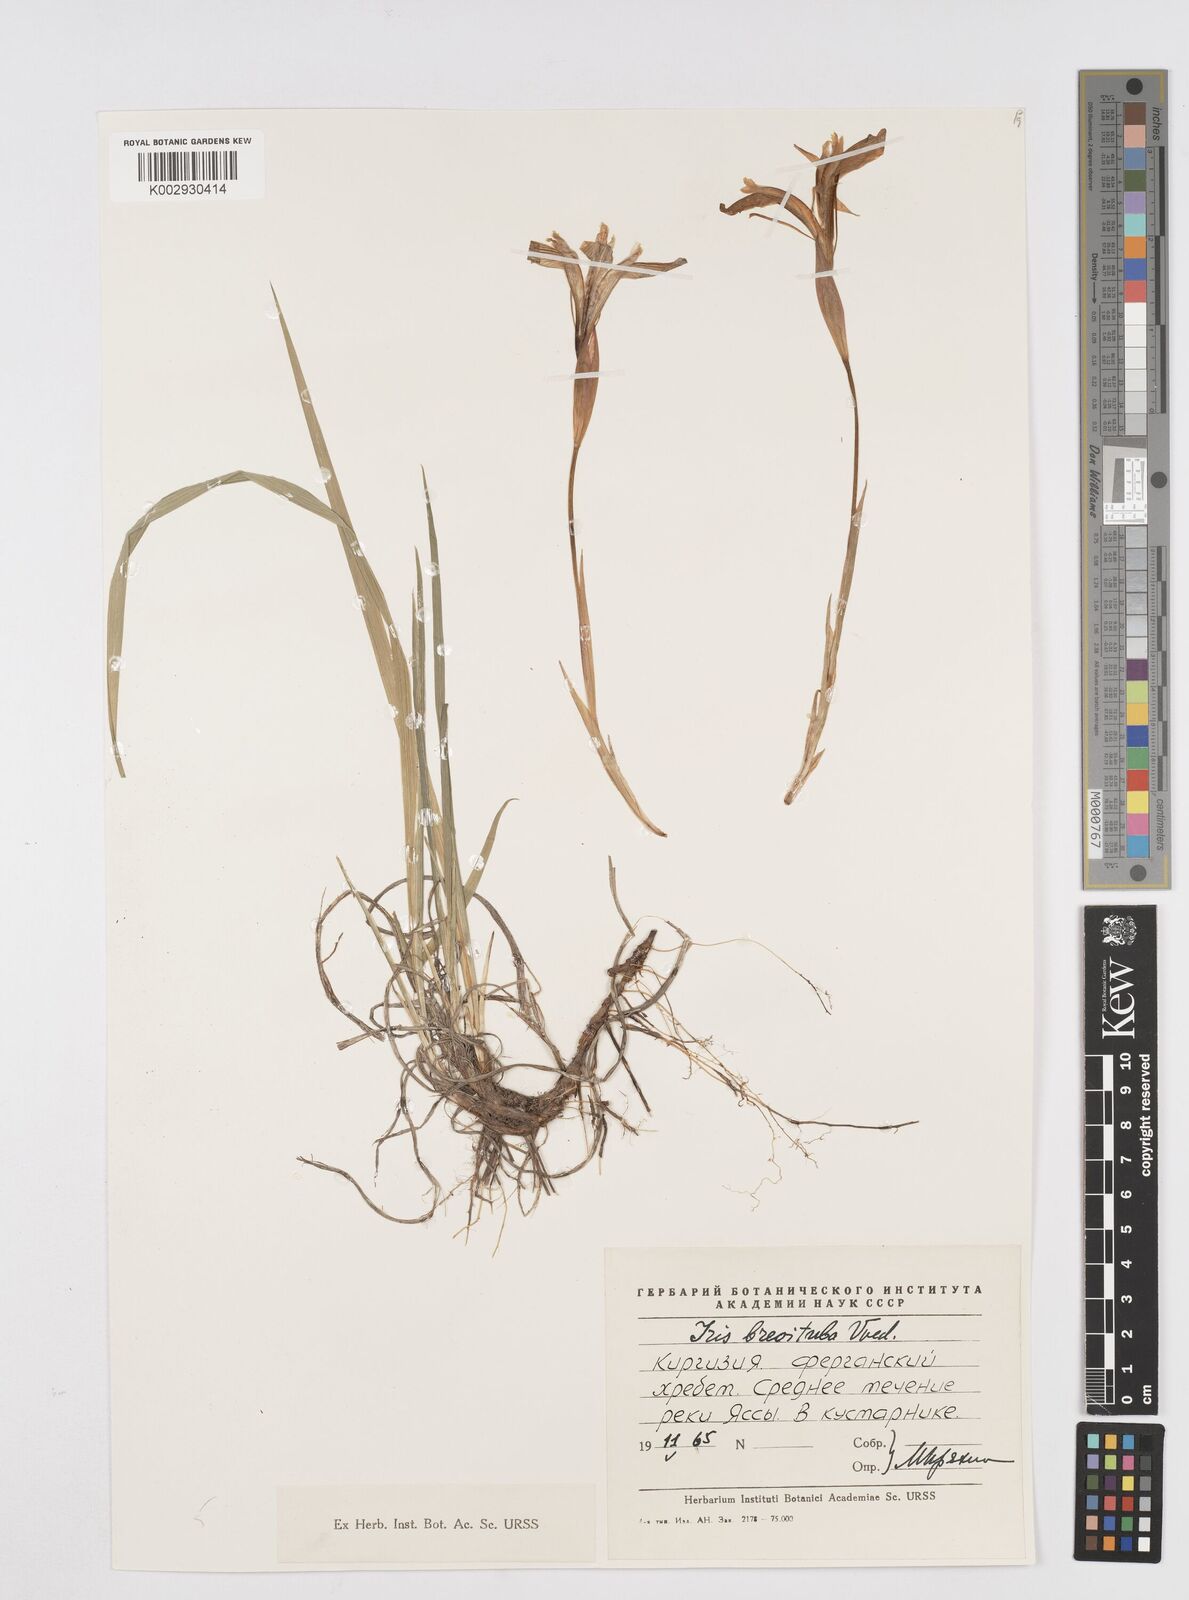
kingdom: Plantae
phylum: Tracheophyta
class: Liliopsida
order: Asparagales
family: Iridaceae
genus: Iris
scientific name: Iris ruthenica
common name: Purple-bract iris
